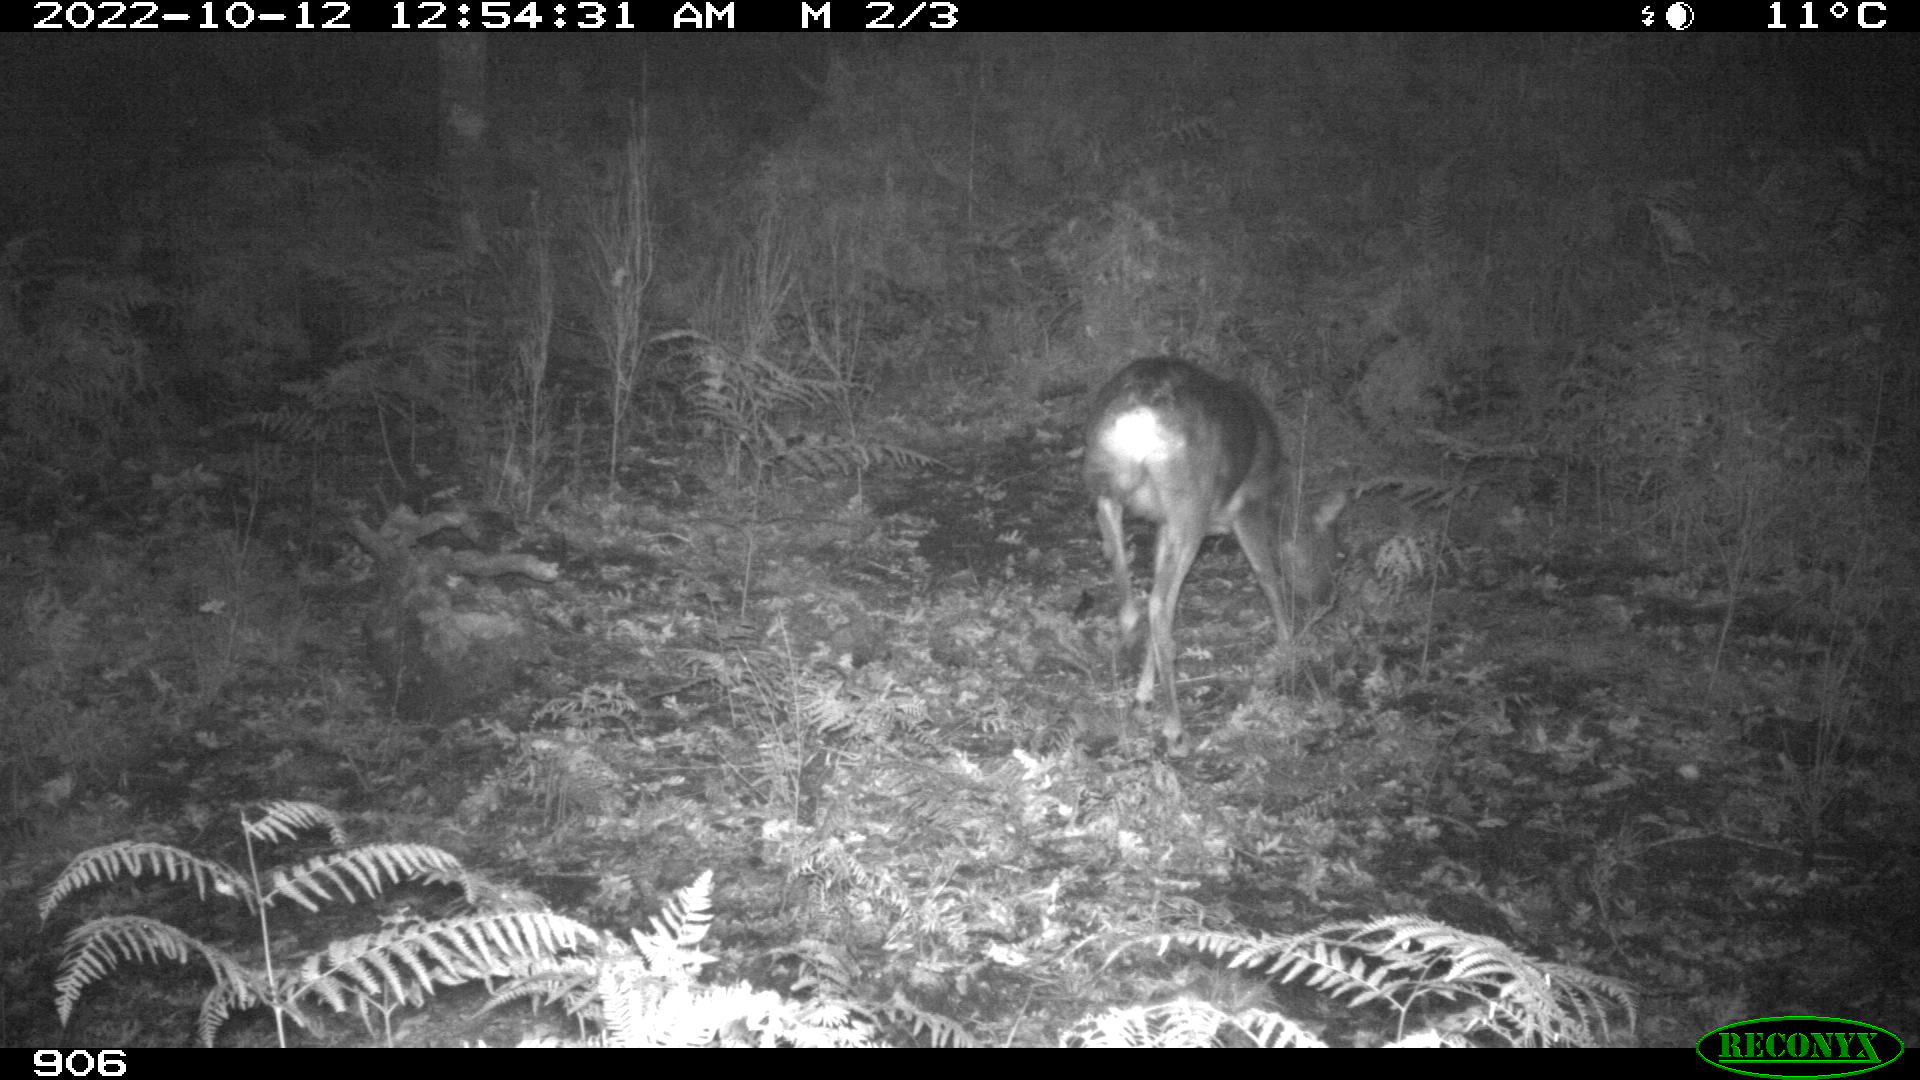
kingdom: Animalia
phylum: Chordata
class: Mammalia
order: Artiodactyla
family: Cervidae
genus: Capreolus
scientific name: Capreolus capreolus
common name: Western roe deer
